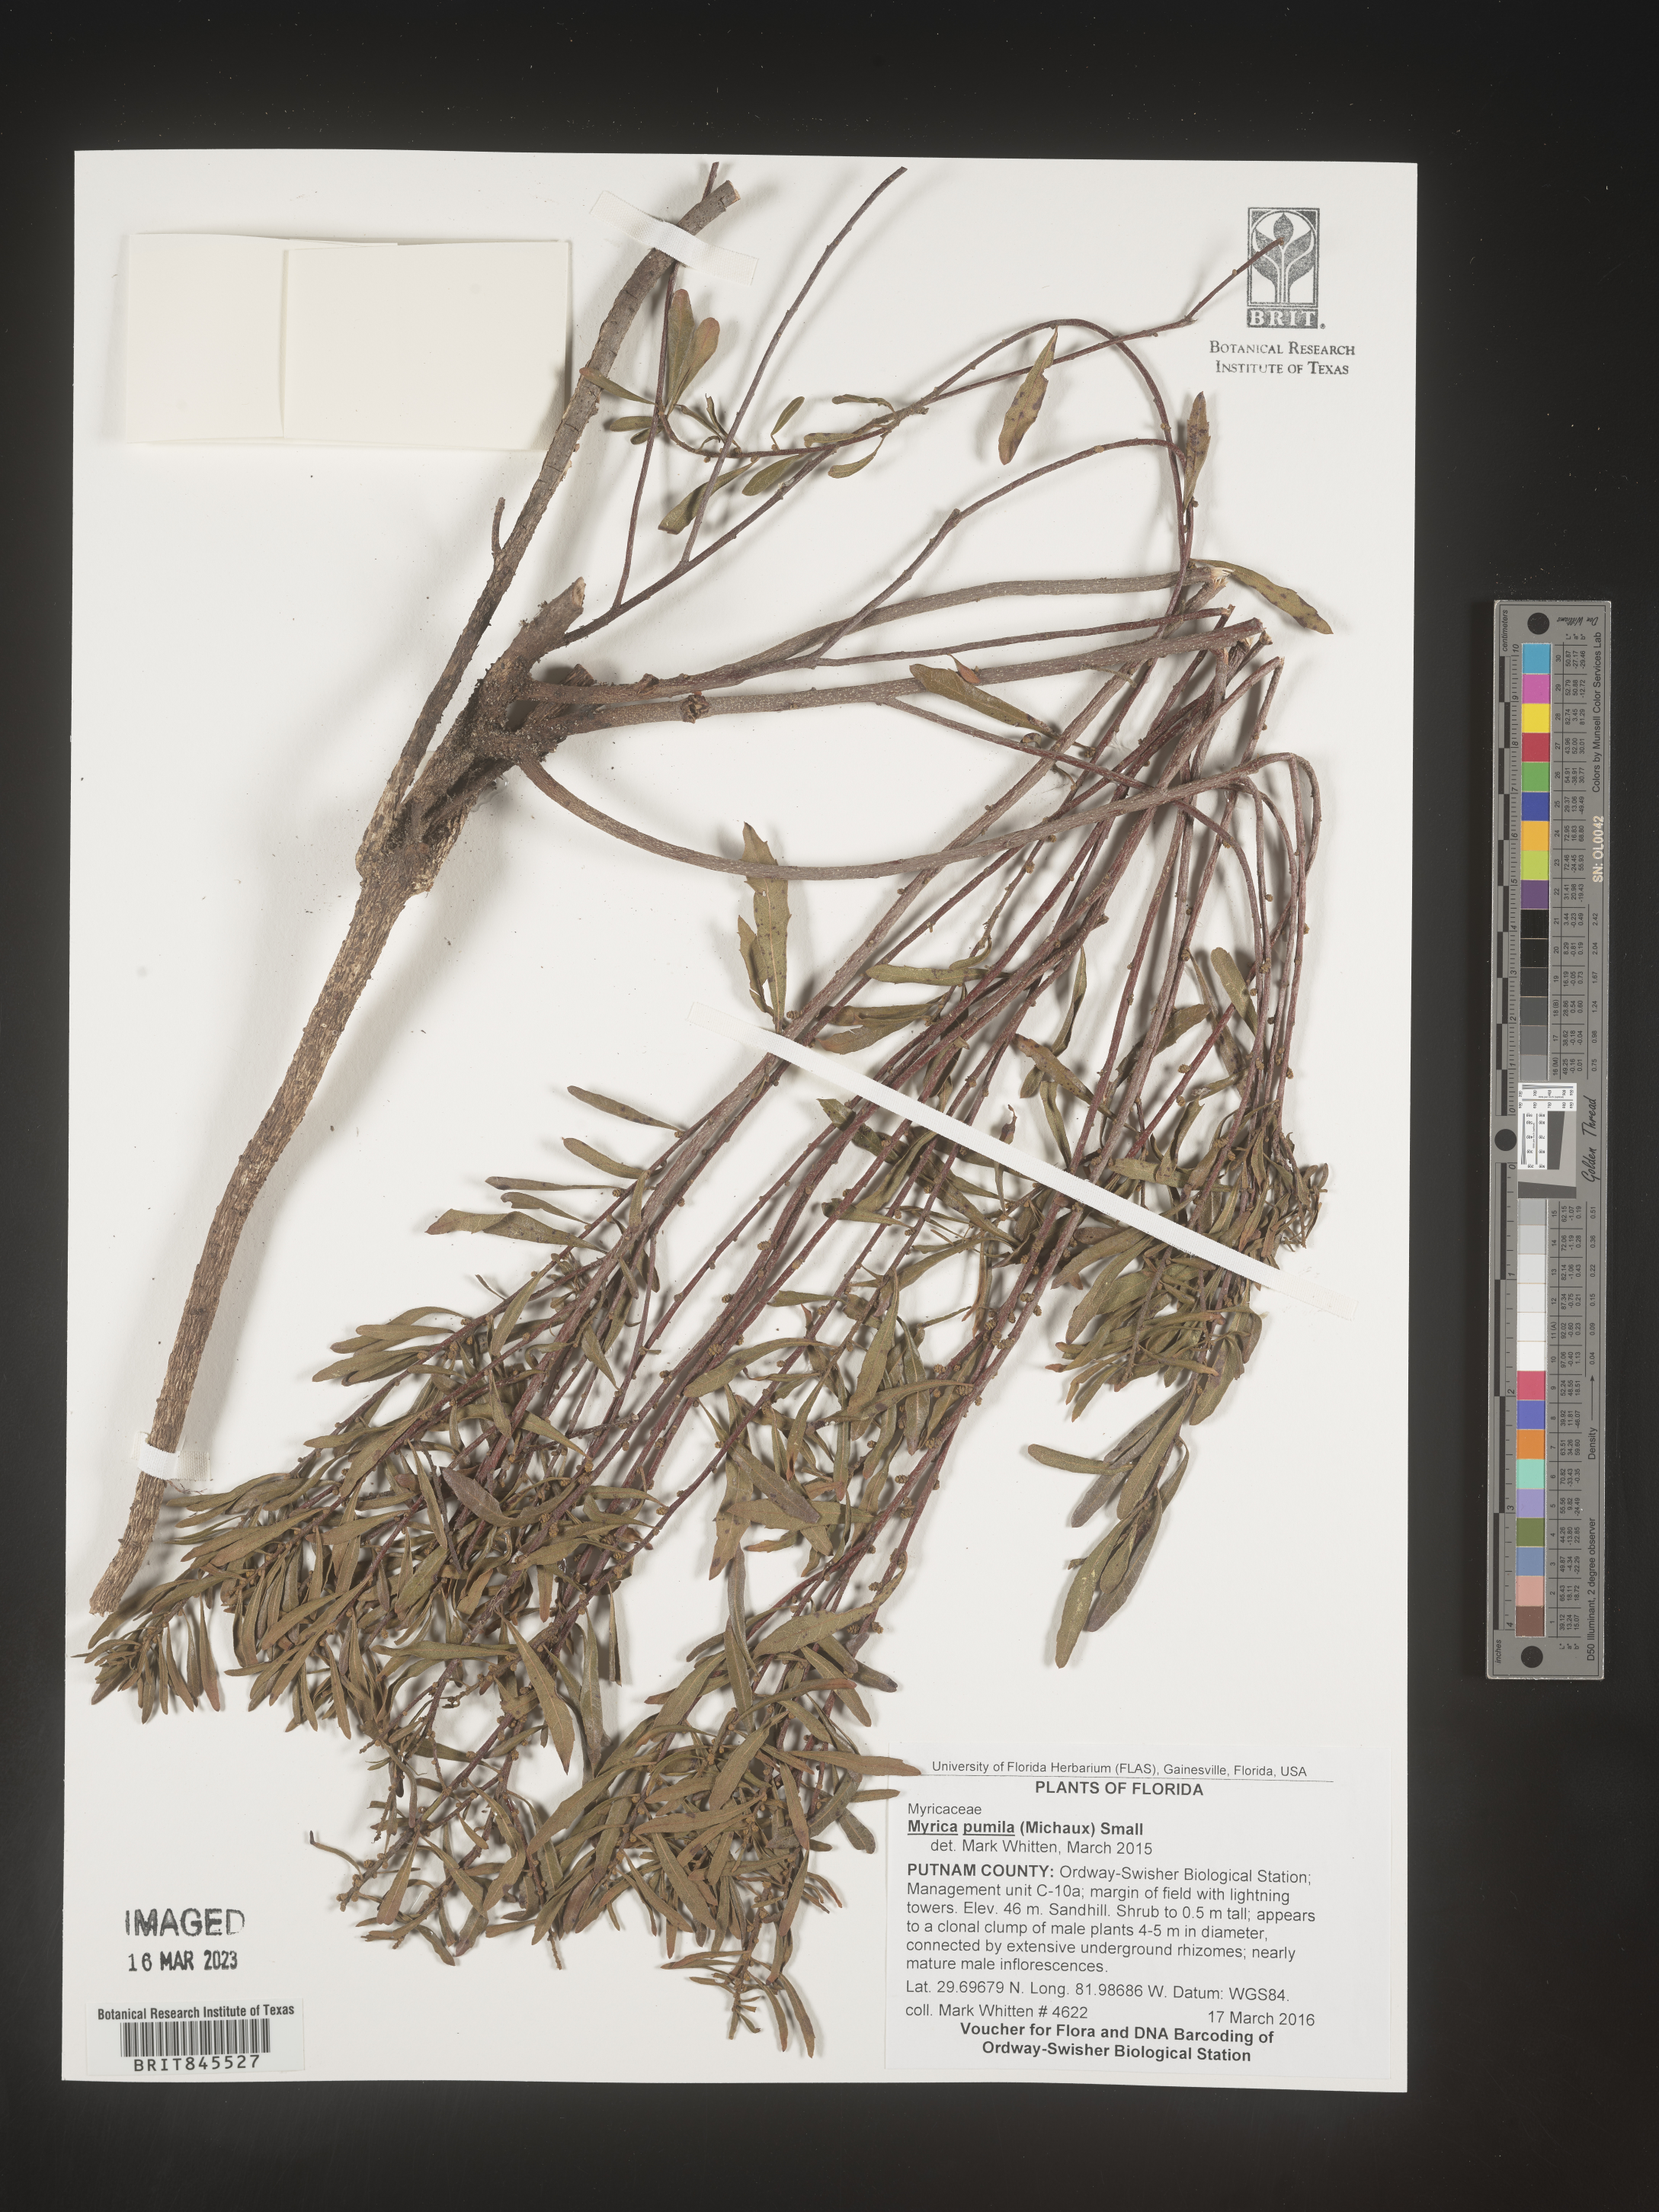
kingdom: Plantae
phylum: Tracheophyta
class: Magnoliopsida
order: Fagales
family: Myricaceae
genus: Myrica
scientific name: Myrica
